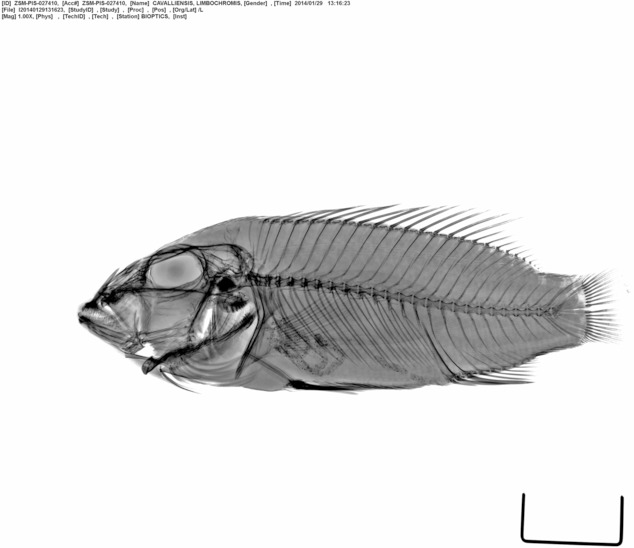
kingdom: Animalia
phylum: Chordata
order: Perciformes
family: Cichlidae
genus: Chromidotilapia
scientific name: Chromidotilapia cavalliensis
